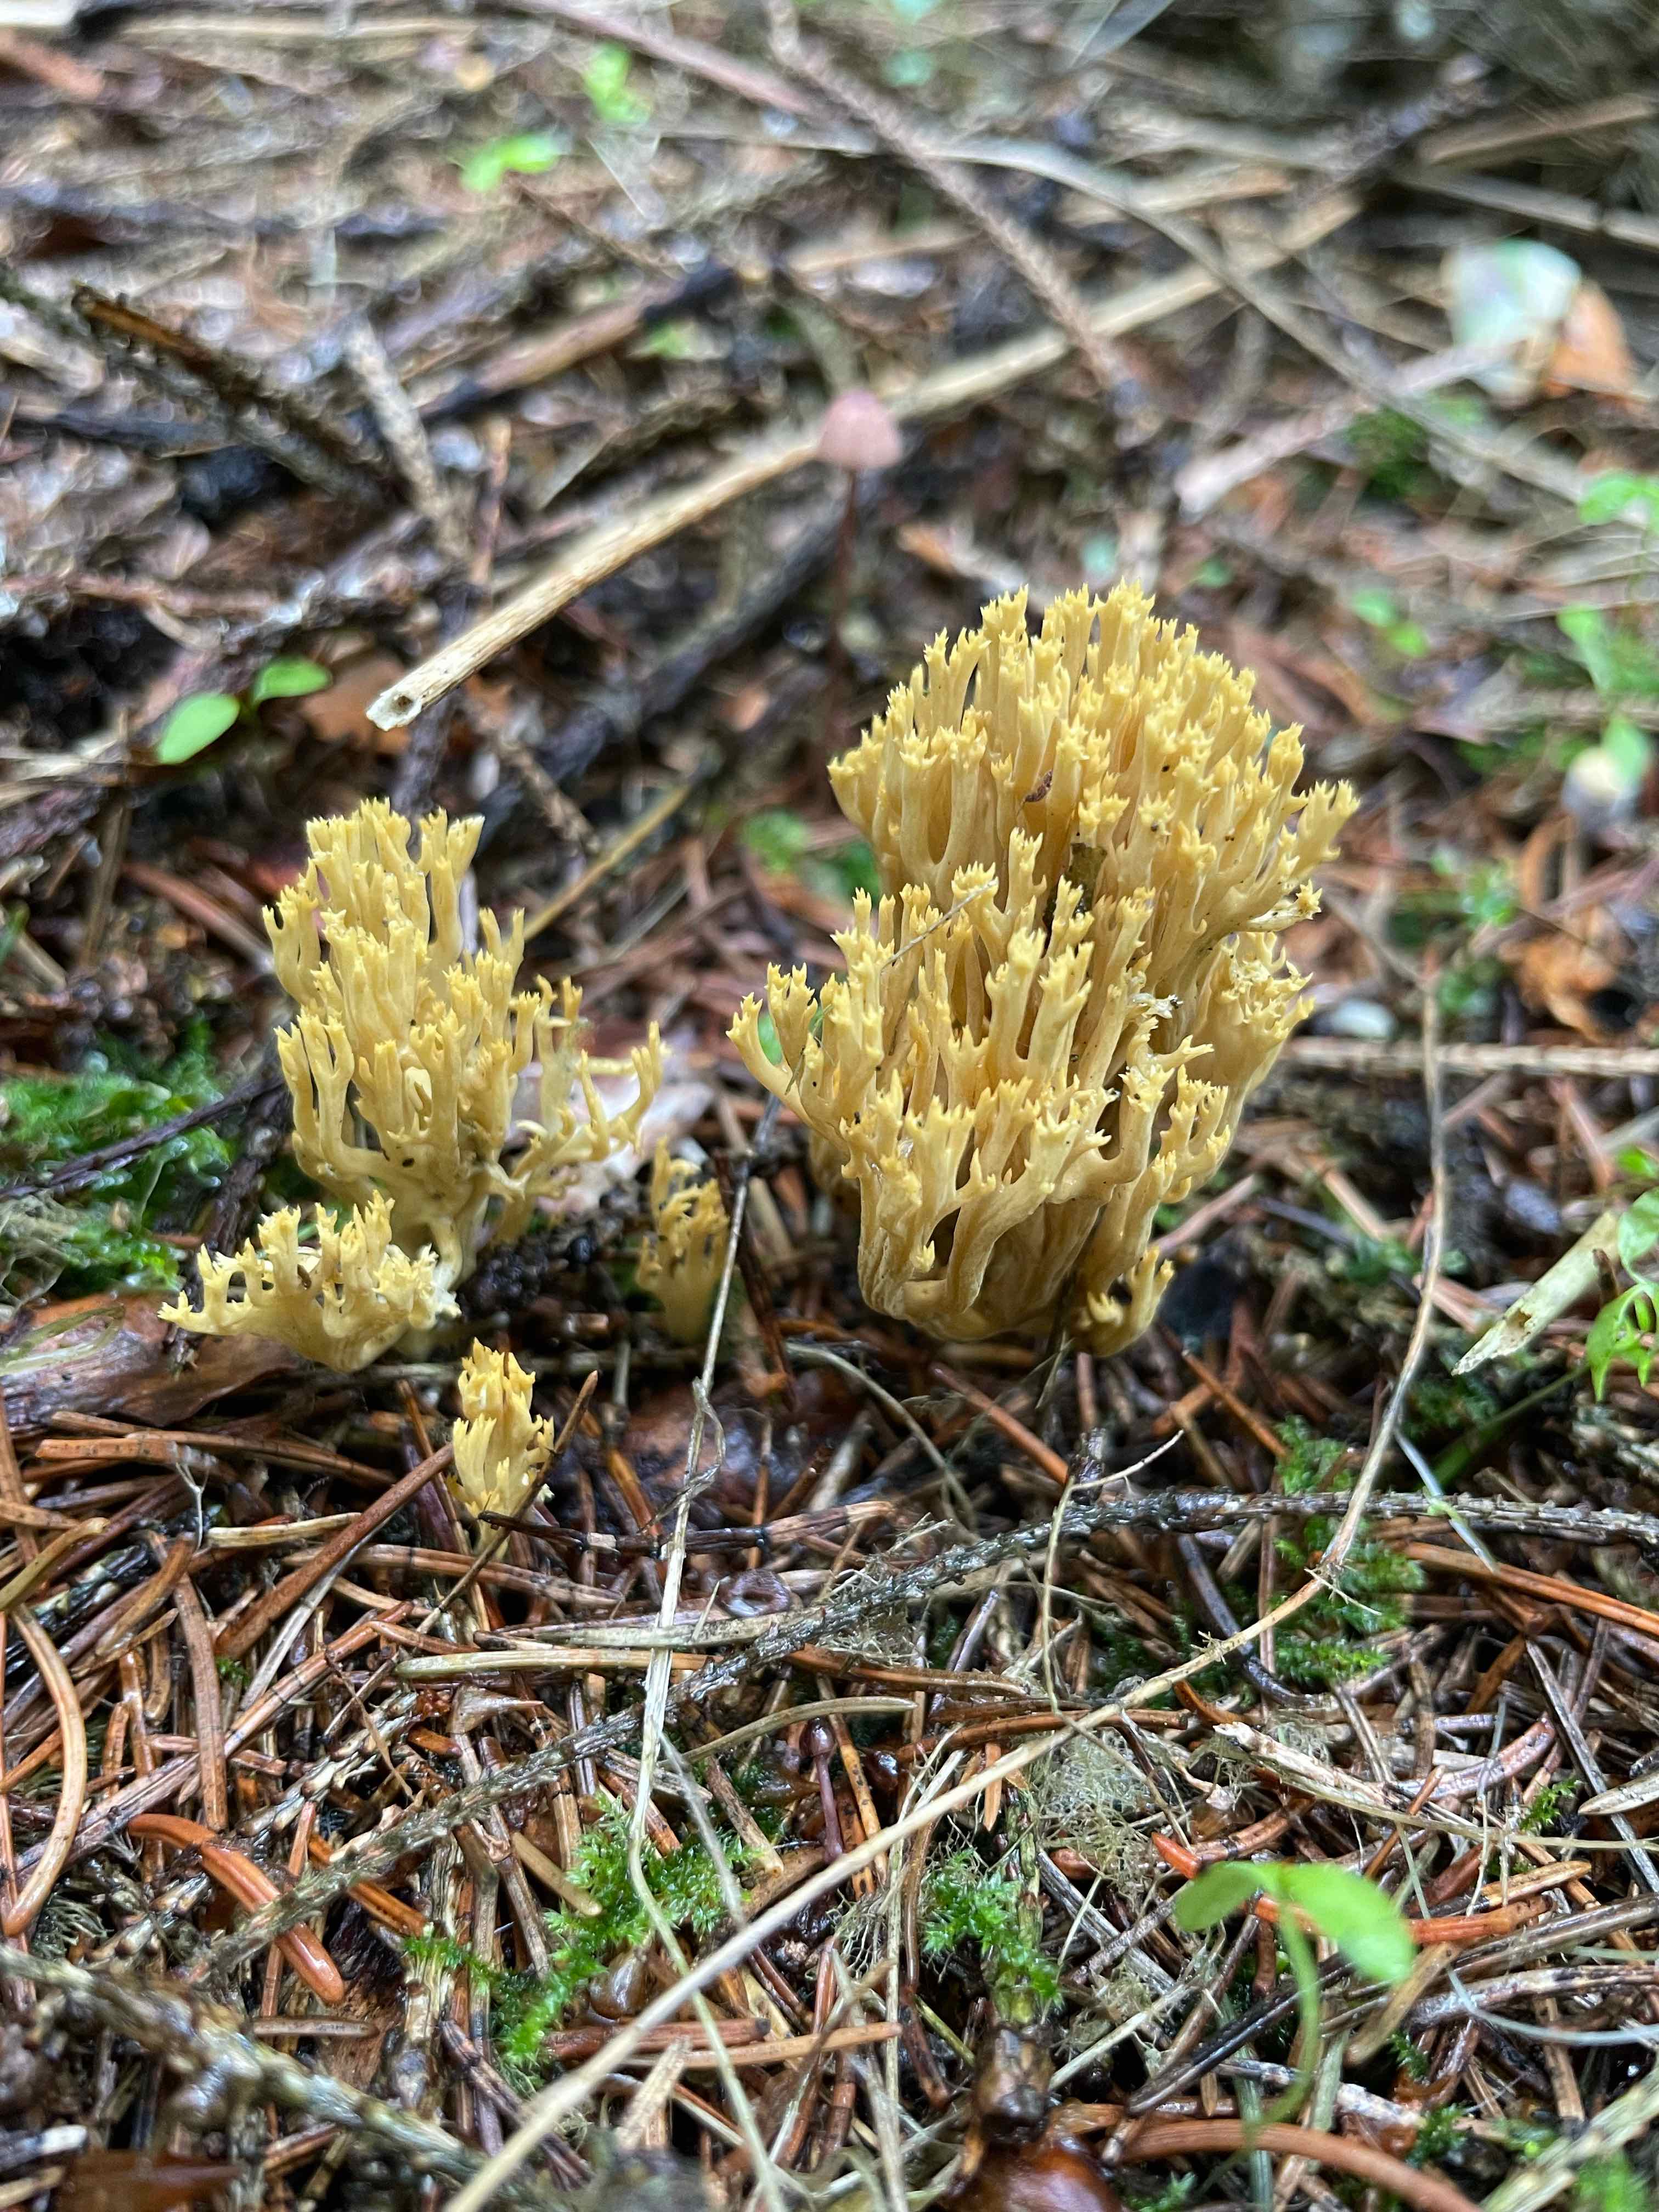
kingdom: Fungi
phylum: Basidiomycota
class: Agaricomycetes
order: Gomphales
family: Gomphaceae
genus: Phaeoclavulina
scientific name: Phaeoclavulina eumorpha
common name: gran-koralsvamp
